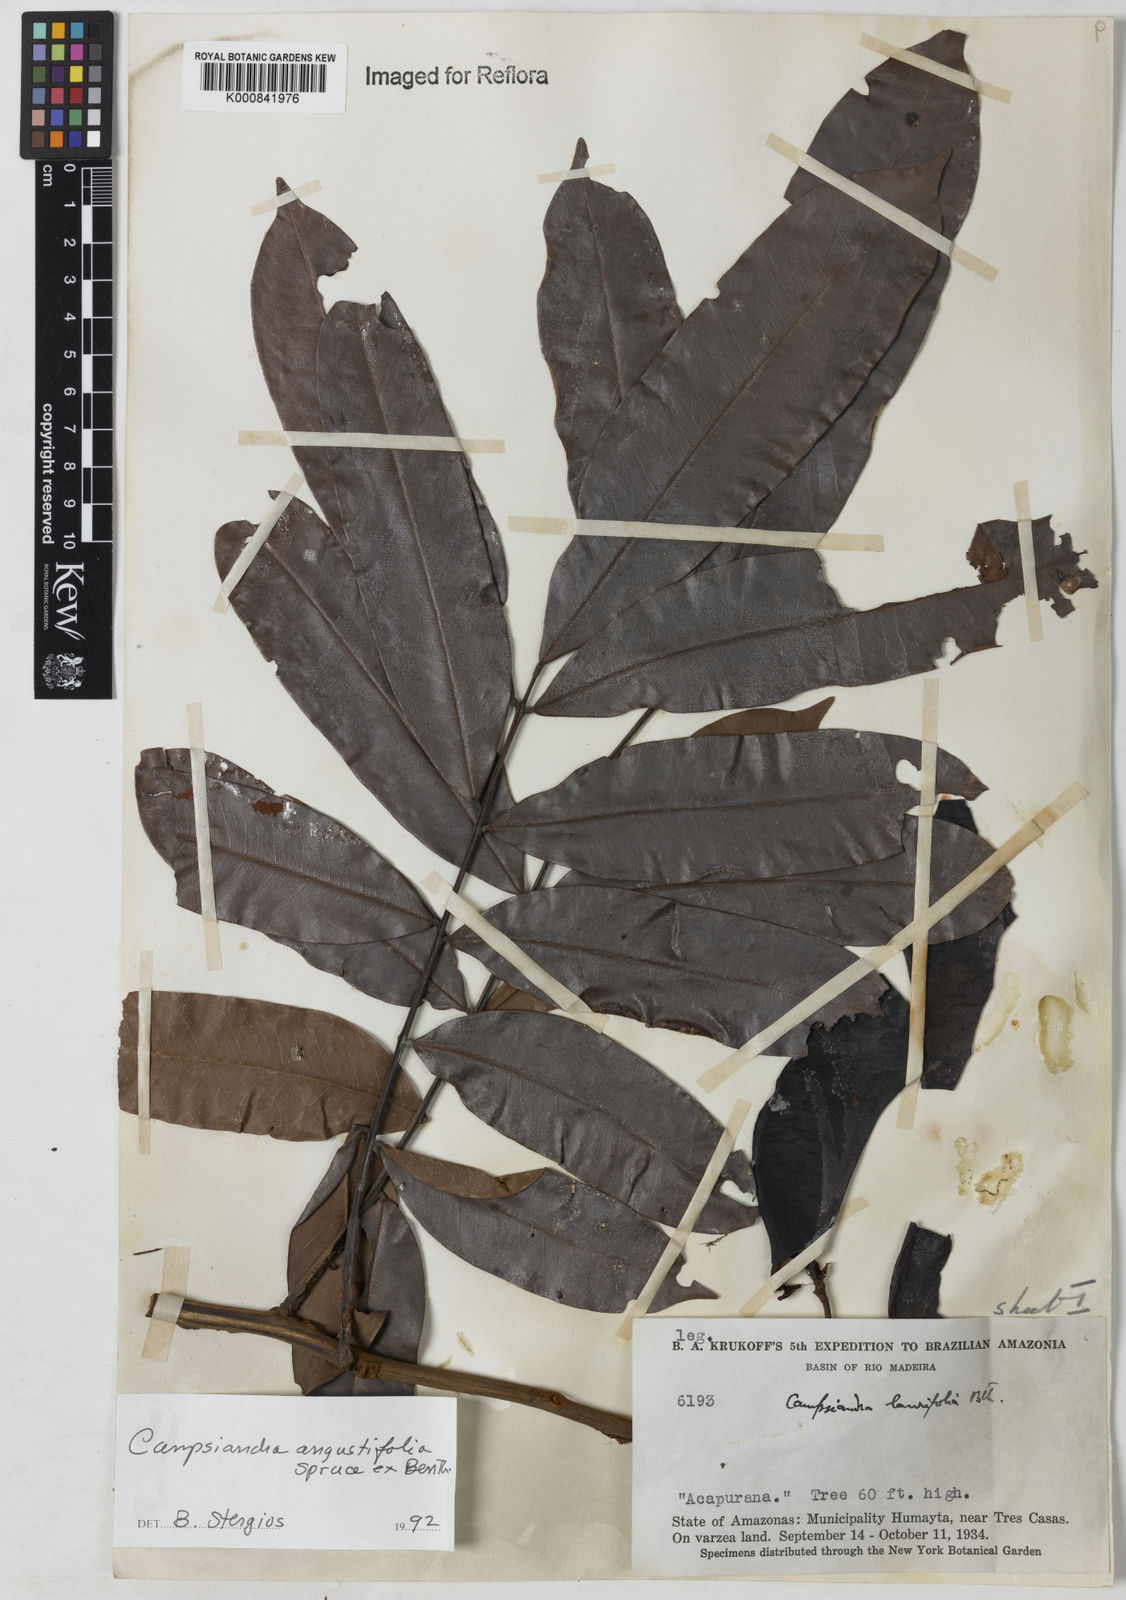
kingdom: Plantae
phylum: Tracheophyta
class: Magnoliopsida
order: Fabales
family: Fabaceae
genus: Campsiandra
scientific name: Campsiandra
